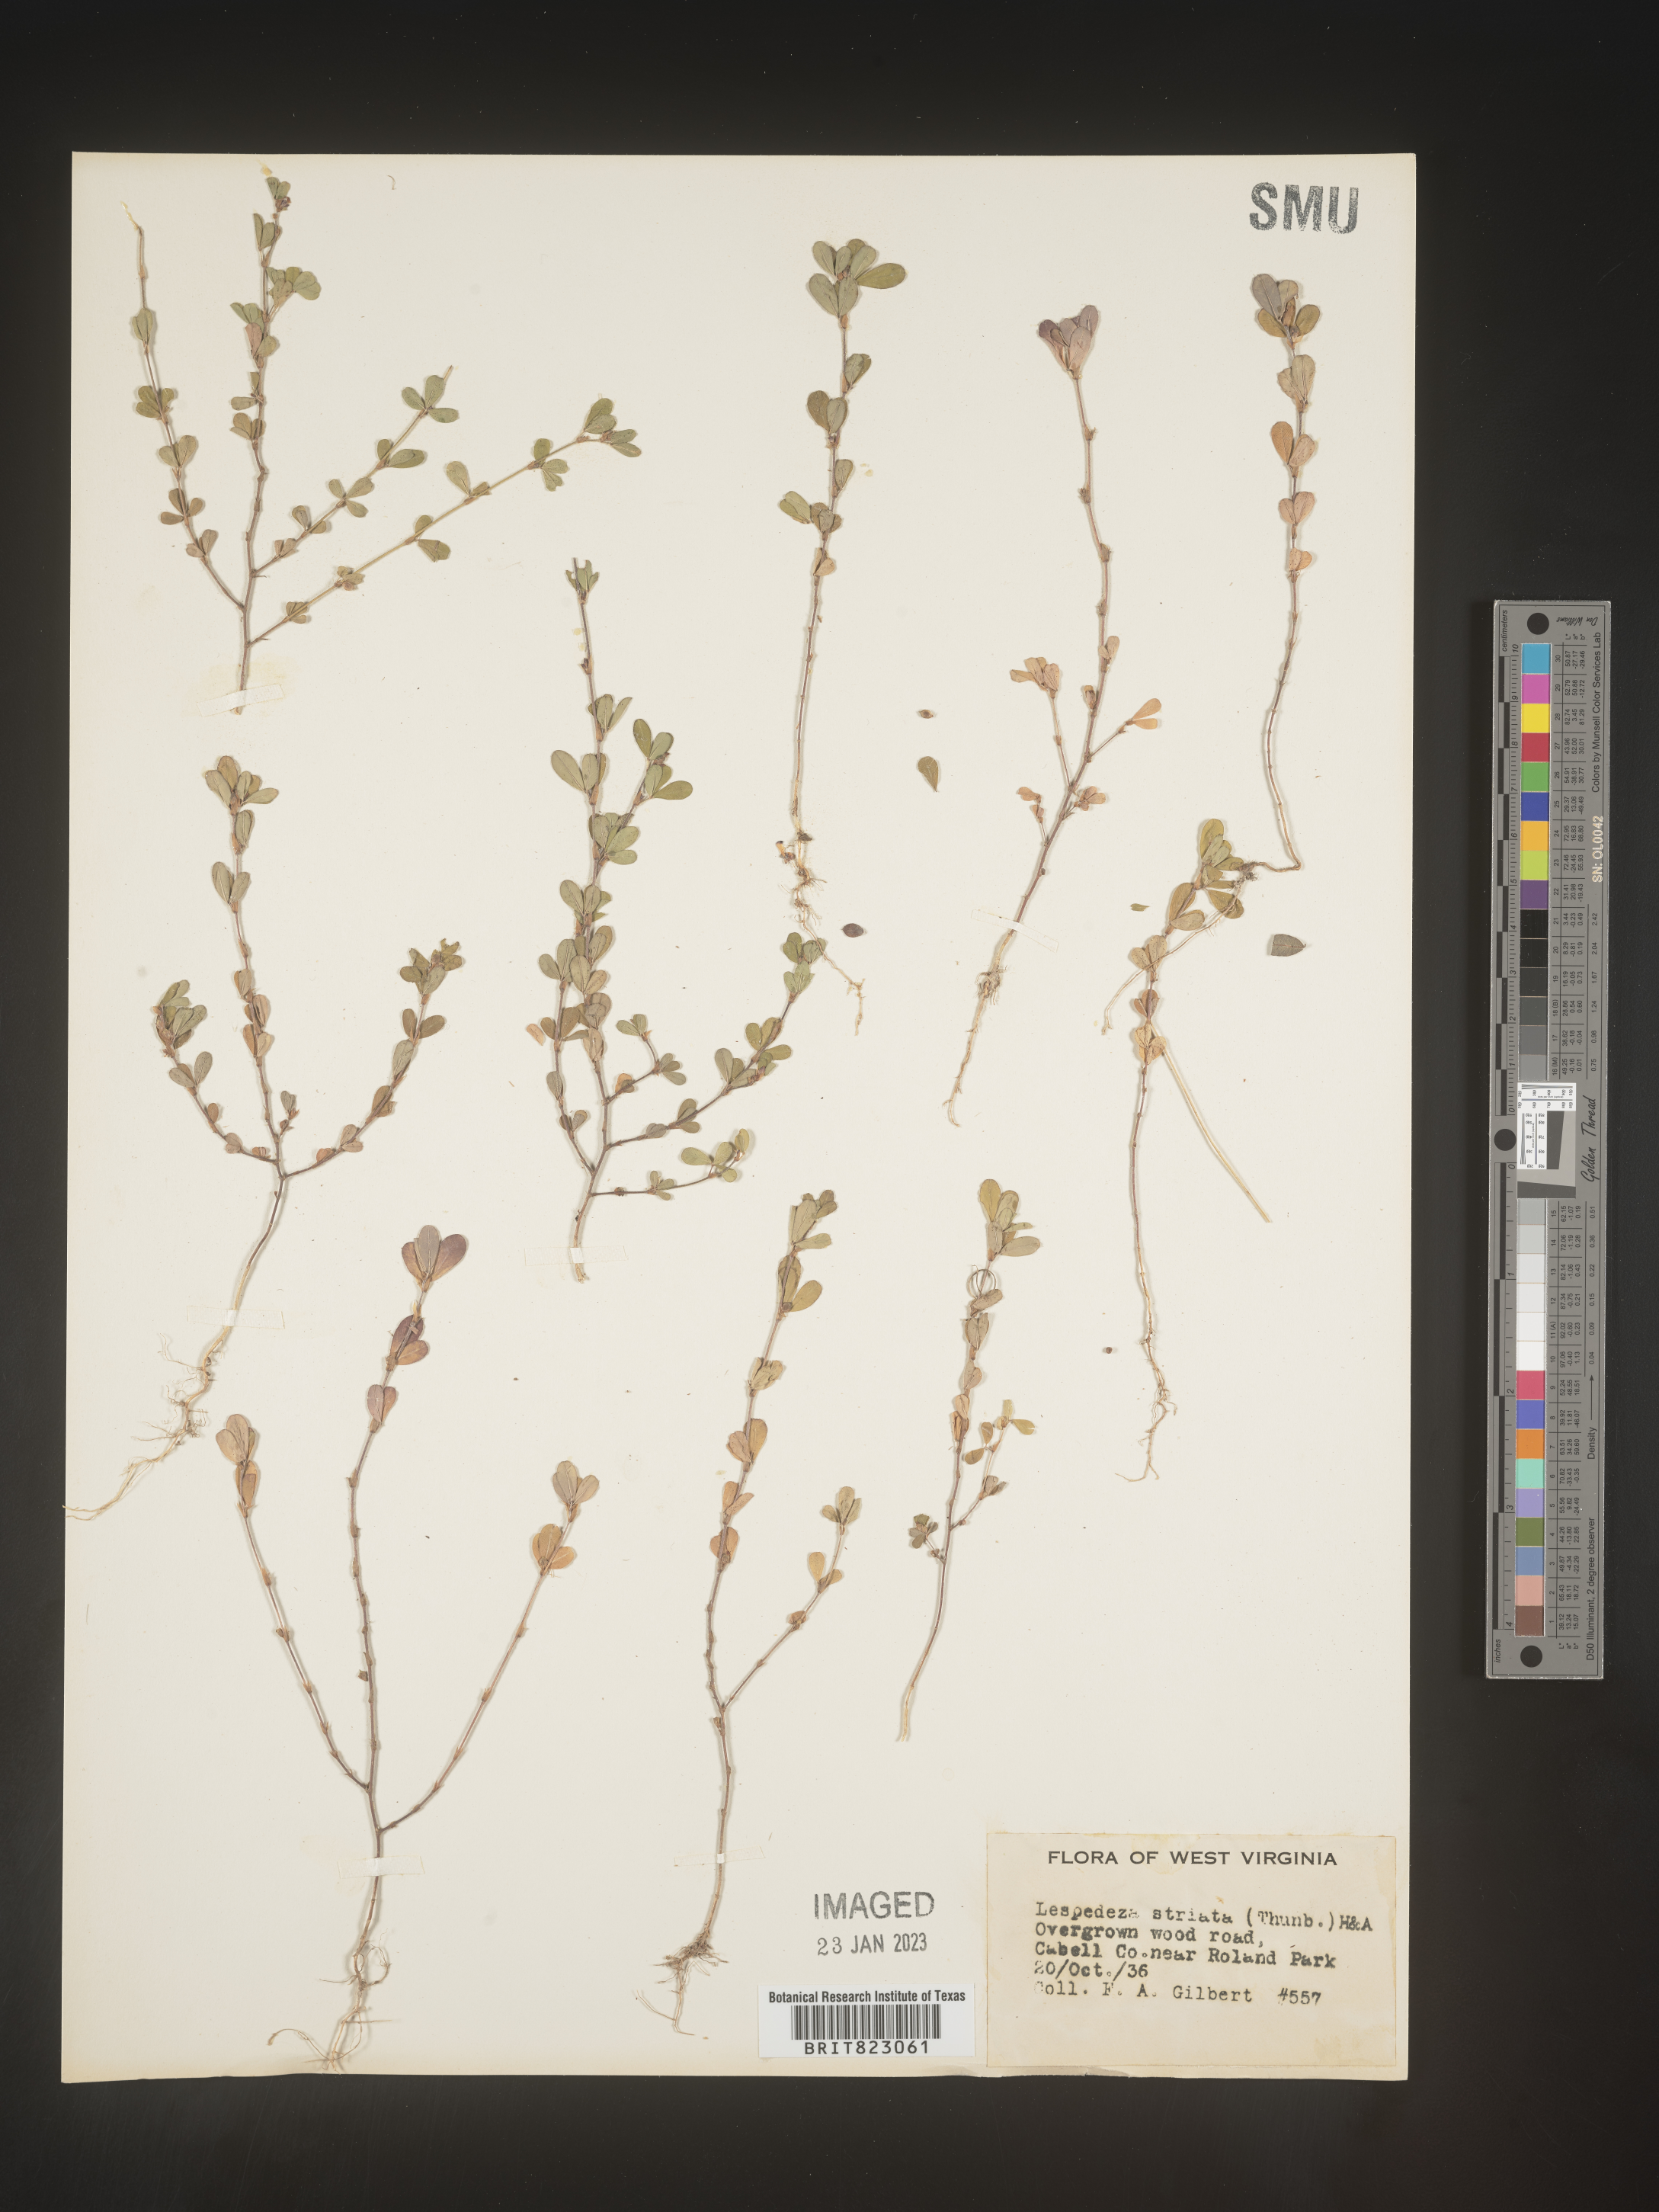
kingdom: Plantae
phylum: Tracheophyta
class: Magnoliopsida
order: Fabales
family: Fabaceae
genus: Kummerowia
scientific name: Kummerowia striata
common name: Japanese clover
